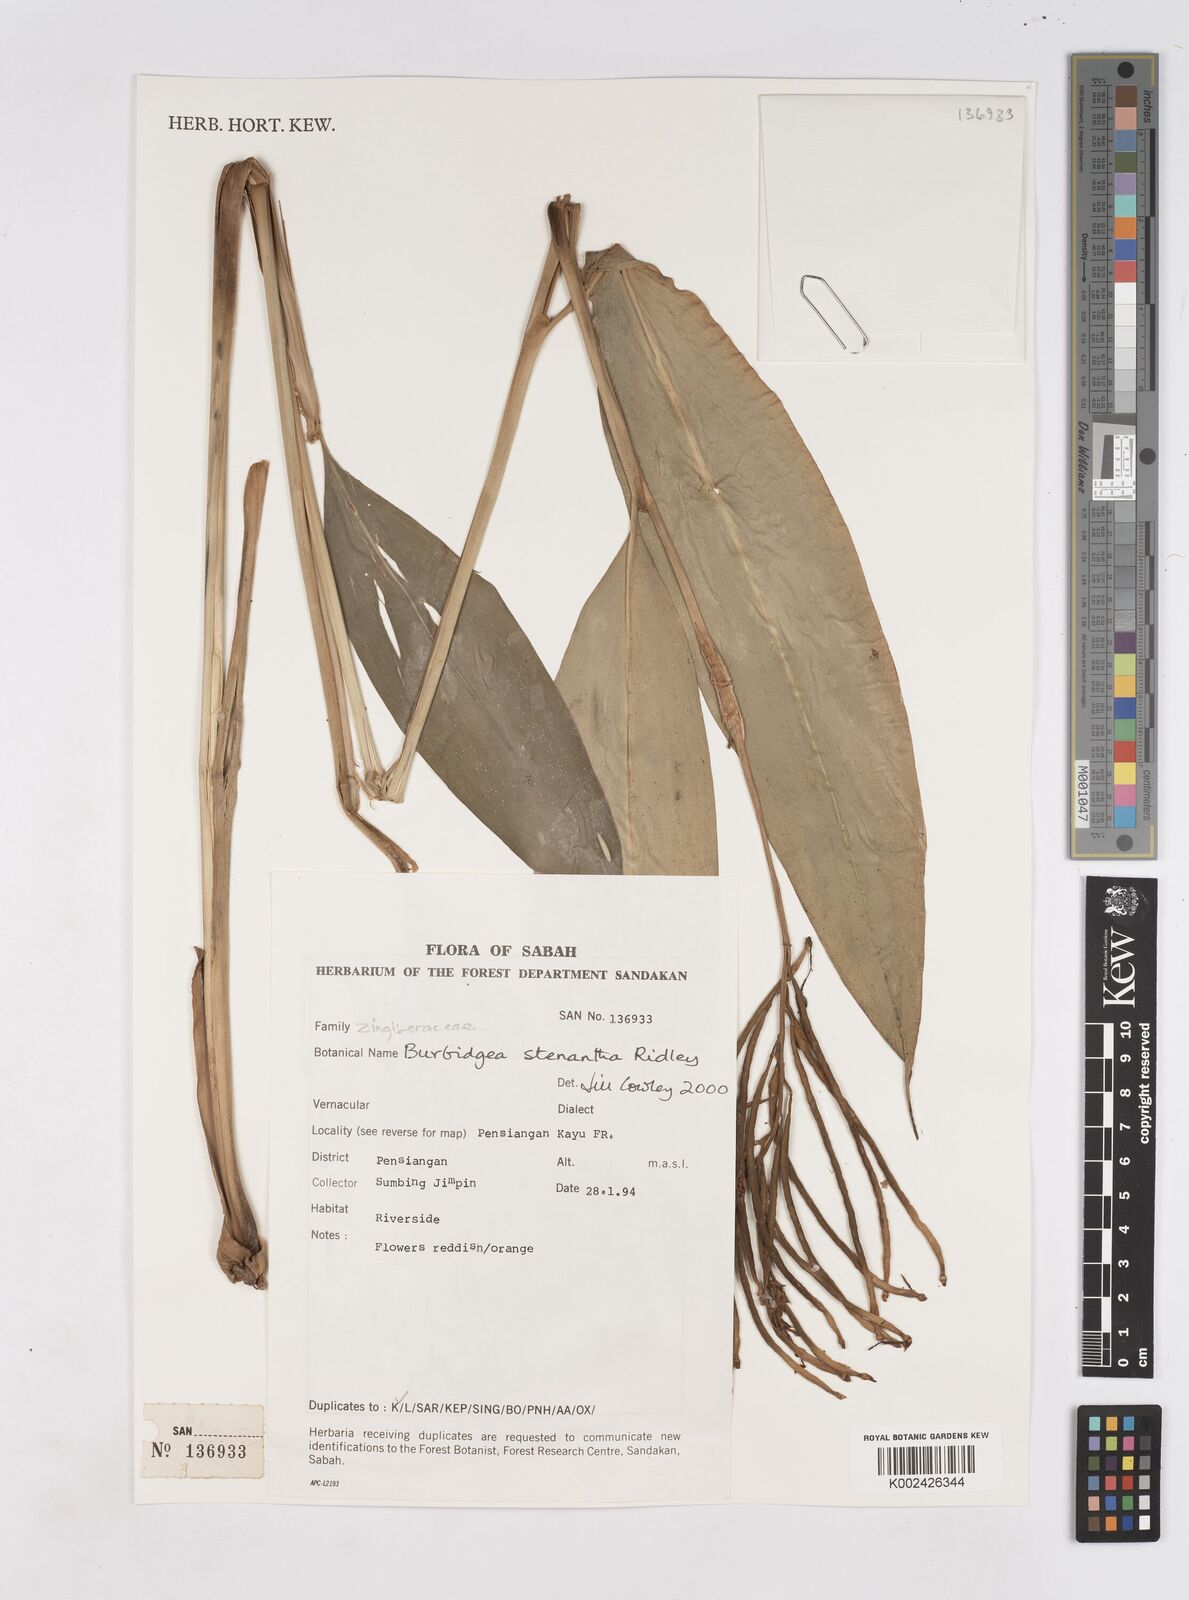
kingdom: Plantae
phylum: Tracheophyta
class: Liliopsida
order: Zingiberales
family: Zingiberaceae
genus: Burbidgea
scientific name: Burbidgea stenantha
